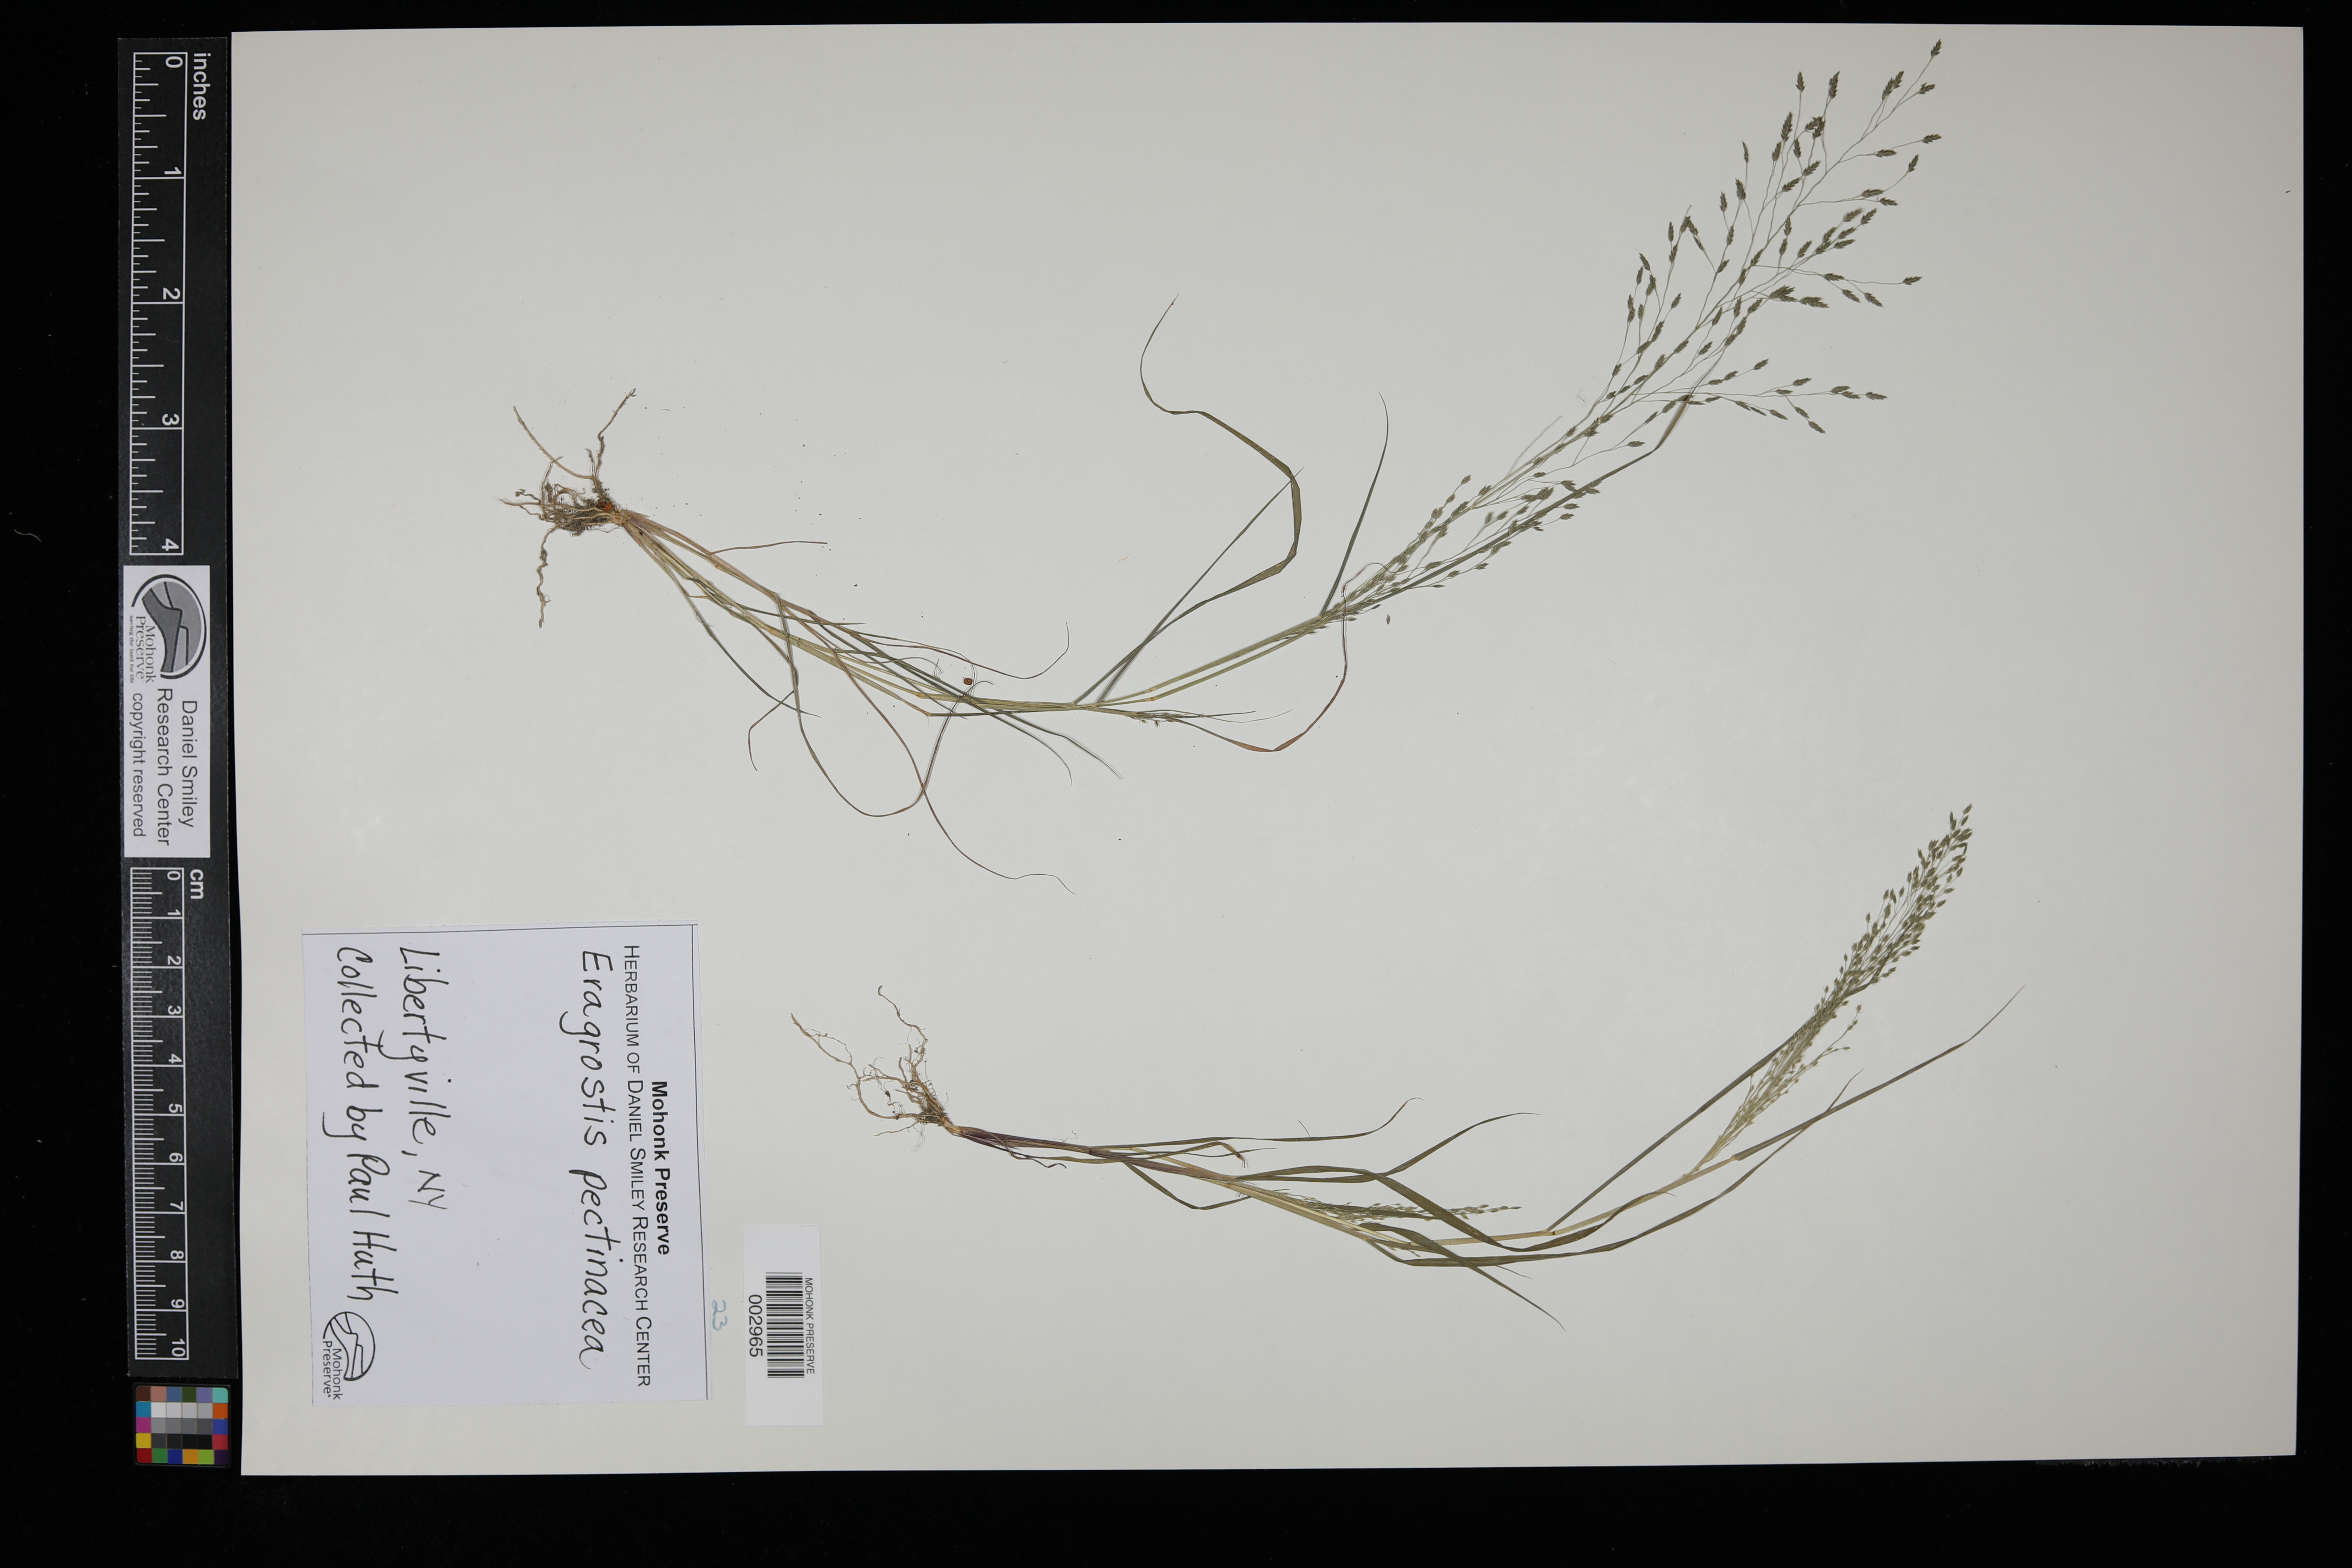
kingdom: Plantae
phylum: Tracheophyta
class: Liliopsida
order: Poales
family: Poaceae
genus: Eragrostis
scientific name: Eragrostis pectinacea
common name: Tufted lovegrass
